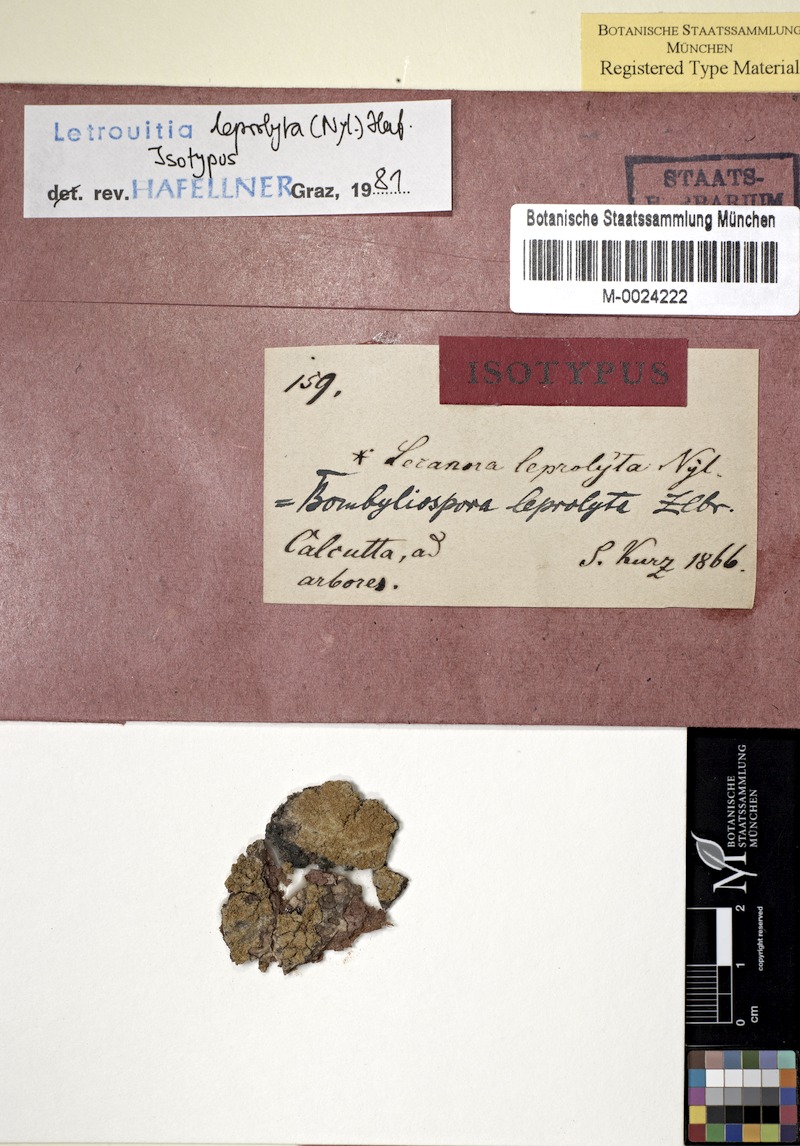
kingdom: Fungi
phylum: Ascomycota
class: Lecanoromycetes
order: Teloschistales
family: Letrouitiaceae
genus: Letrouitia
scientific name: Letrouitia leprolyta
